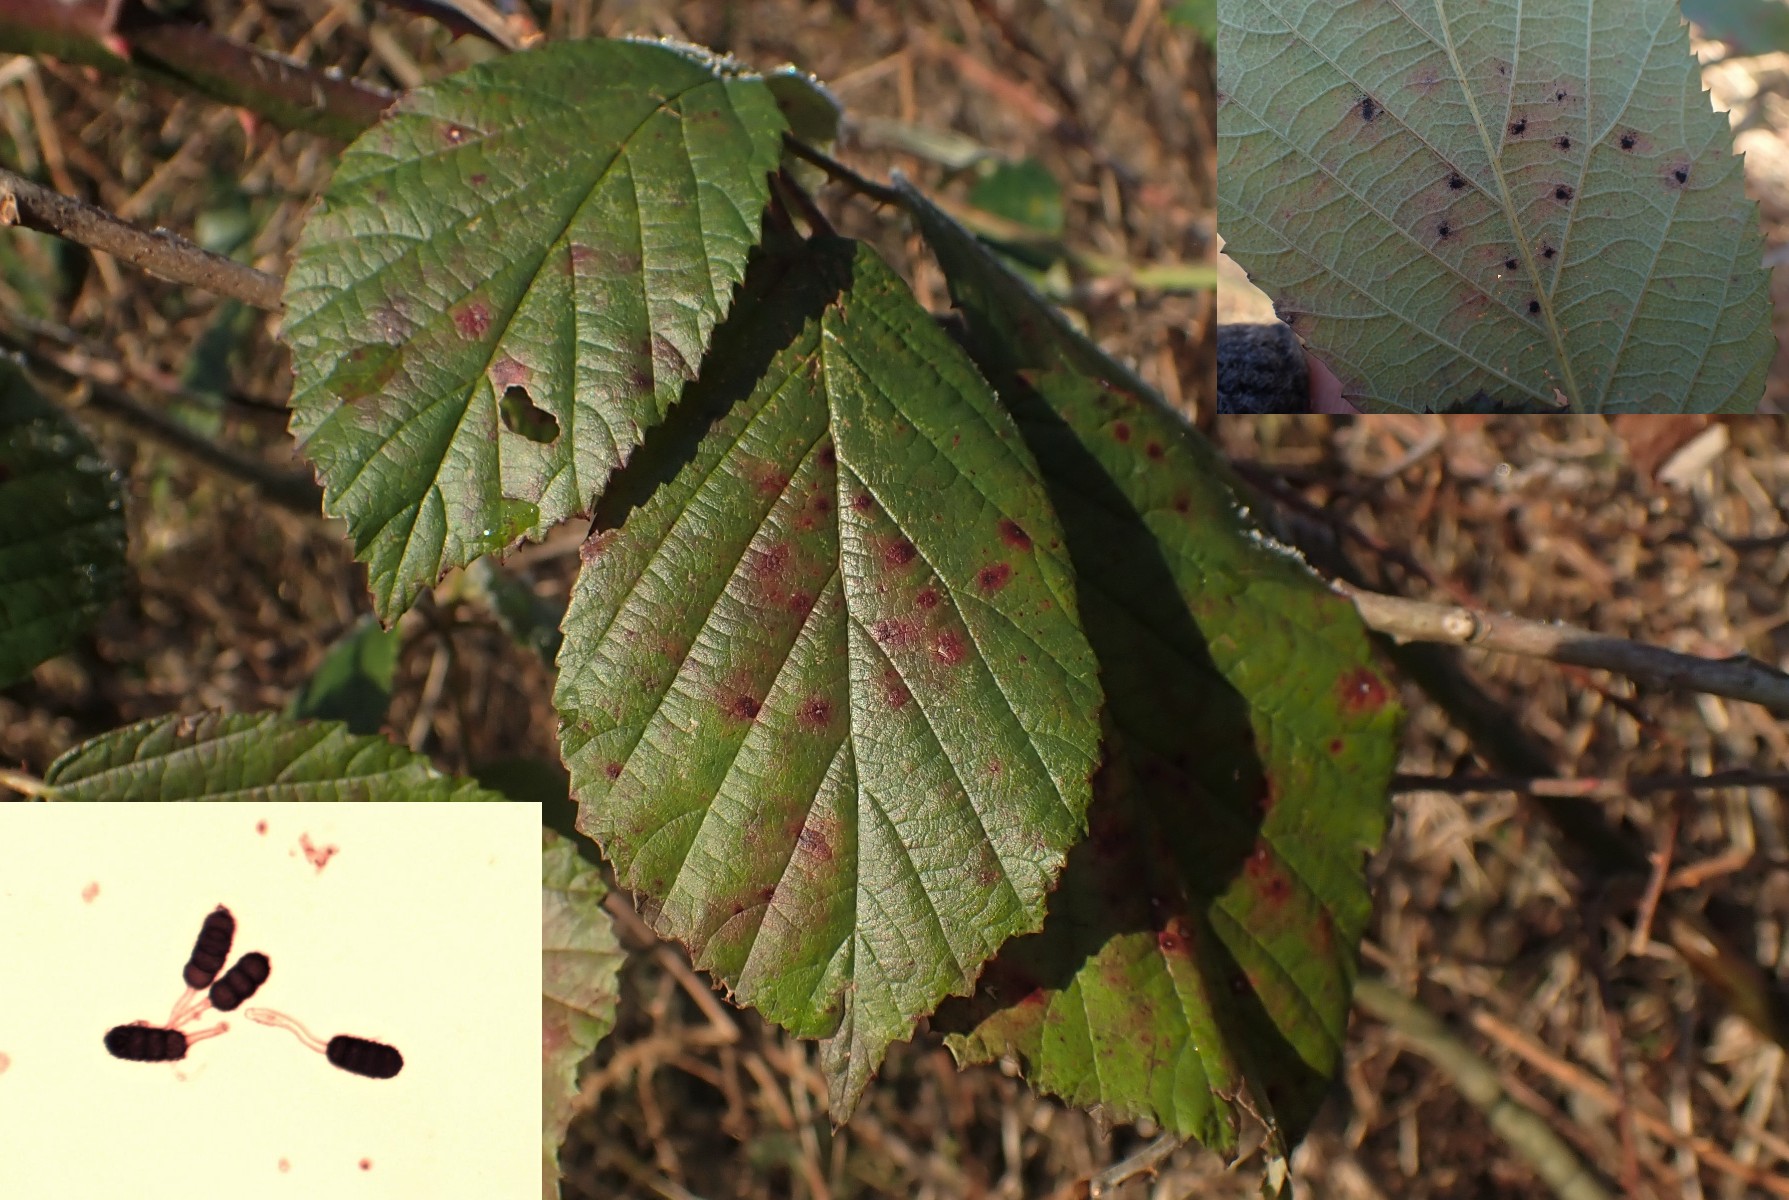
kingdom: Fungi
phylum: Basidiomycota
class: Pucciniomycetes
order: Pucciniales
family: Phragmidiaceae
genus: Phragmidium
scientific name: Phragmidium violaceum
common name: violet flercellerust
